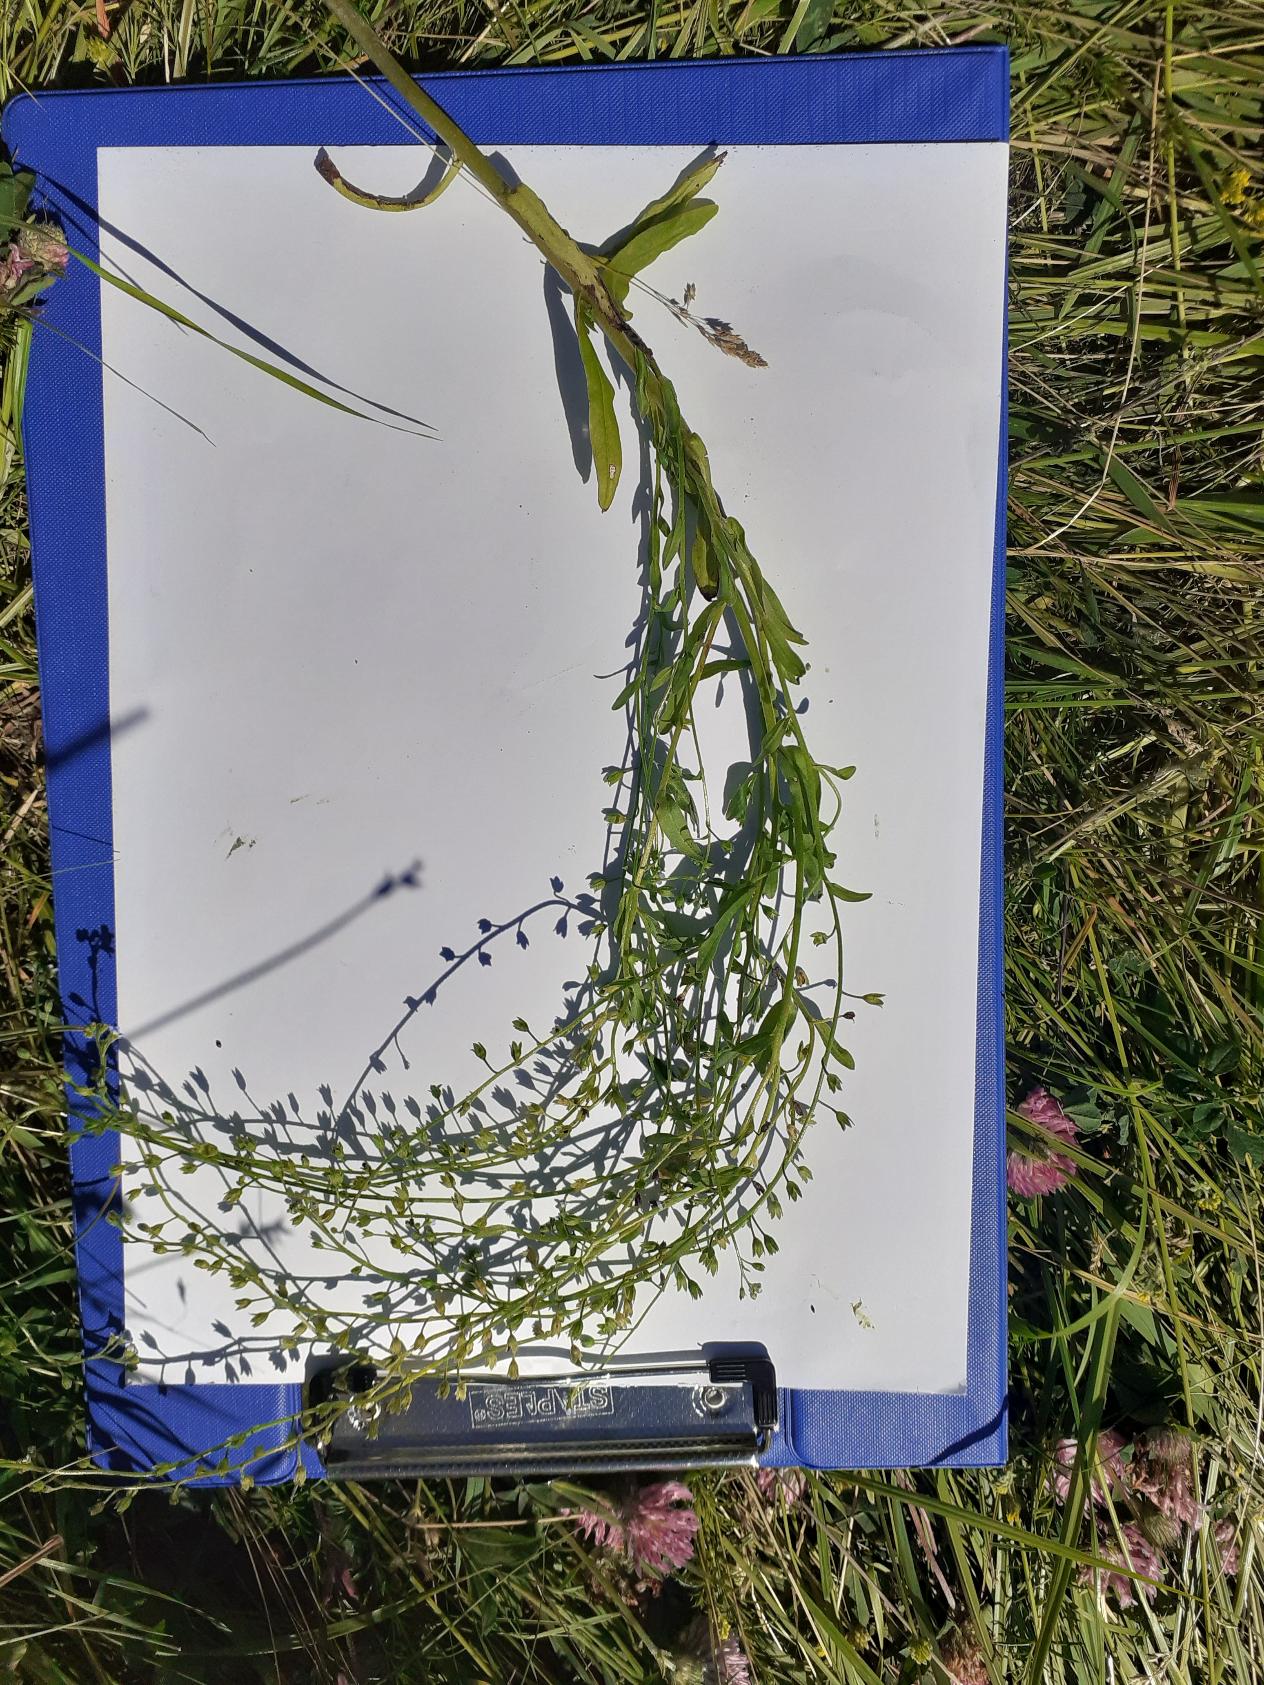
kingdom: Plantae
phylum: Tracheophyta
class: Magnoliopsida
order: Boraginales
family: Boraginaceae
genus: Myosotis
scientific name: Myosotis laxa
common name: Sump-forglemmigej
